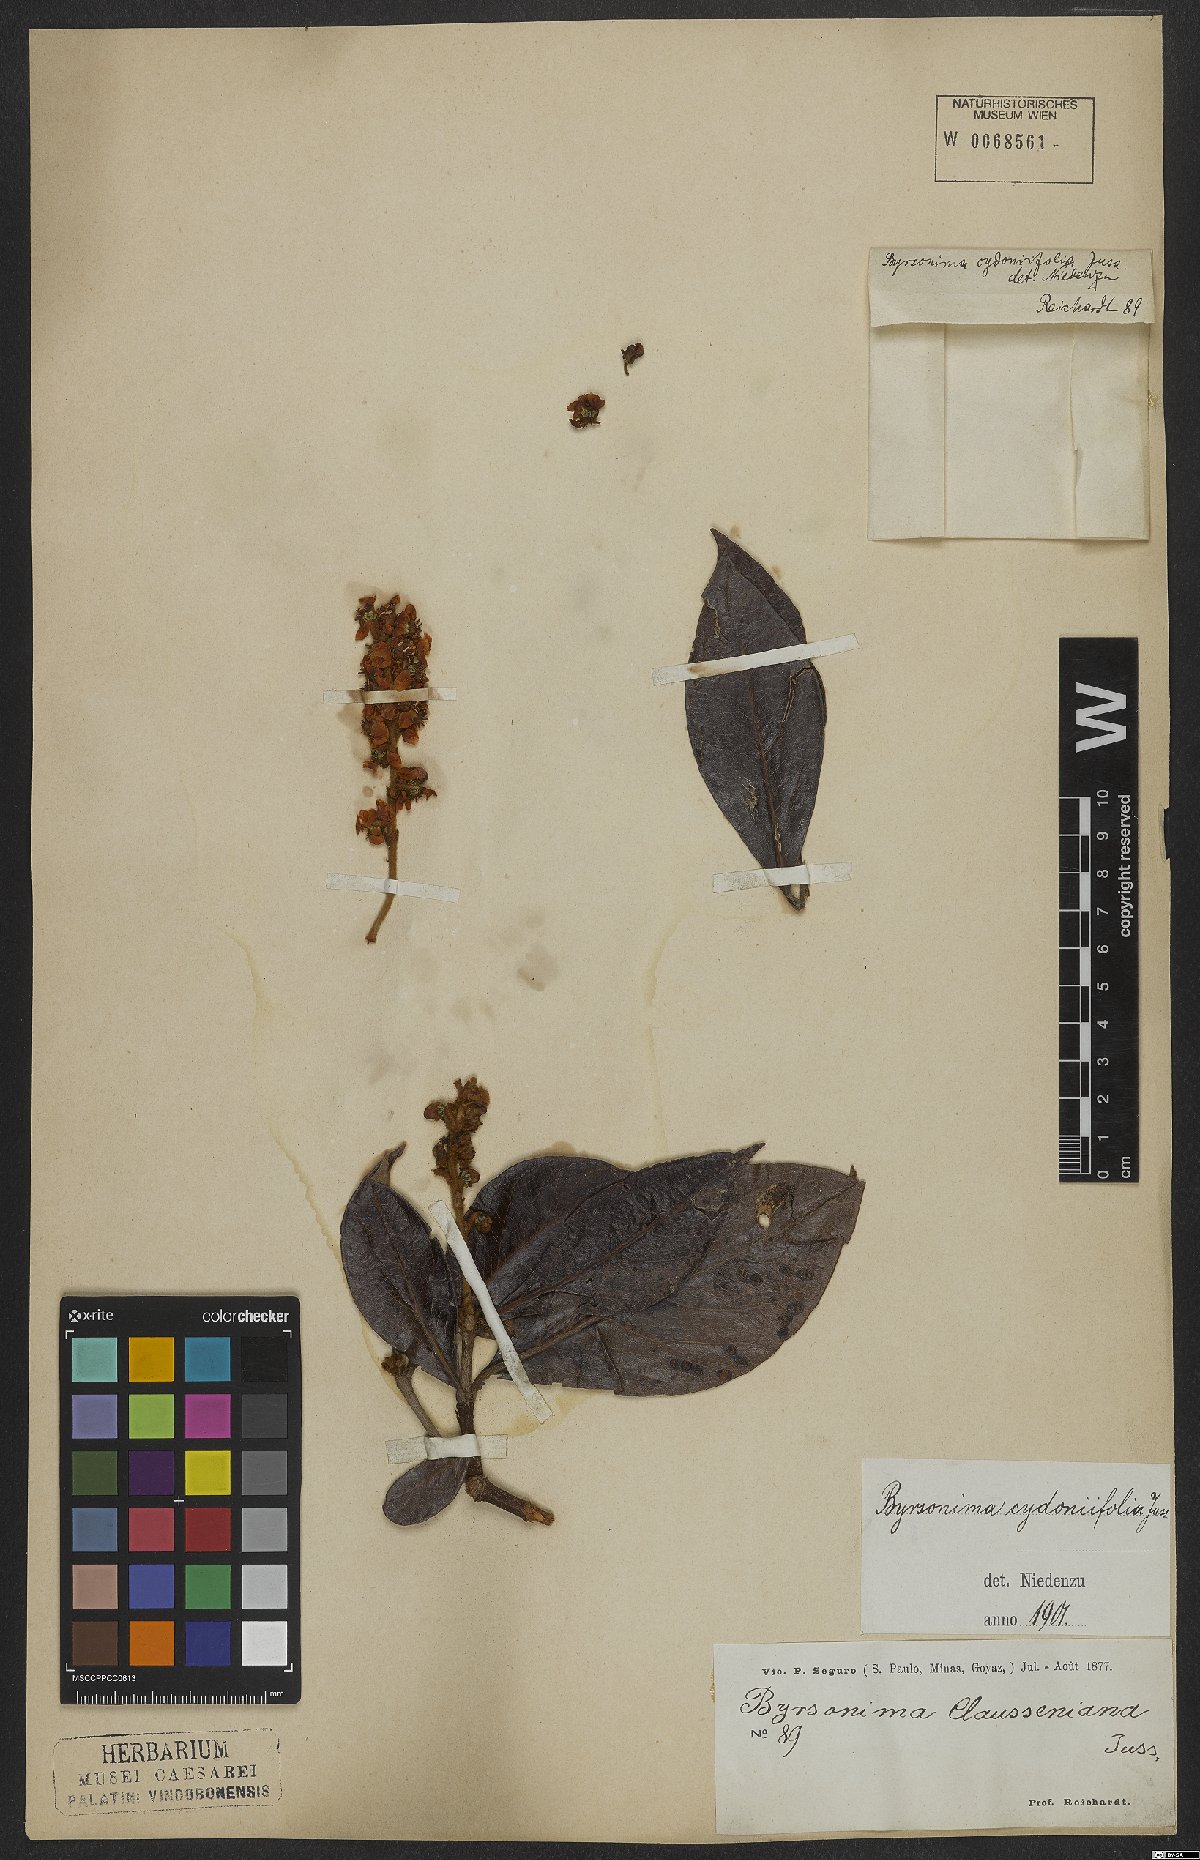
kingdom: Plantae
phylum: Tracheophyta
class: Magnoliopsida
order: Malpighiales
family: Malpighiaceae
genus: Byrsonima
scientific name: Byrsonima cydoniifolia
